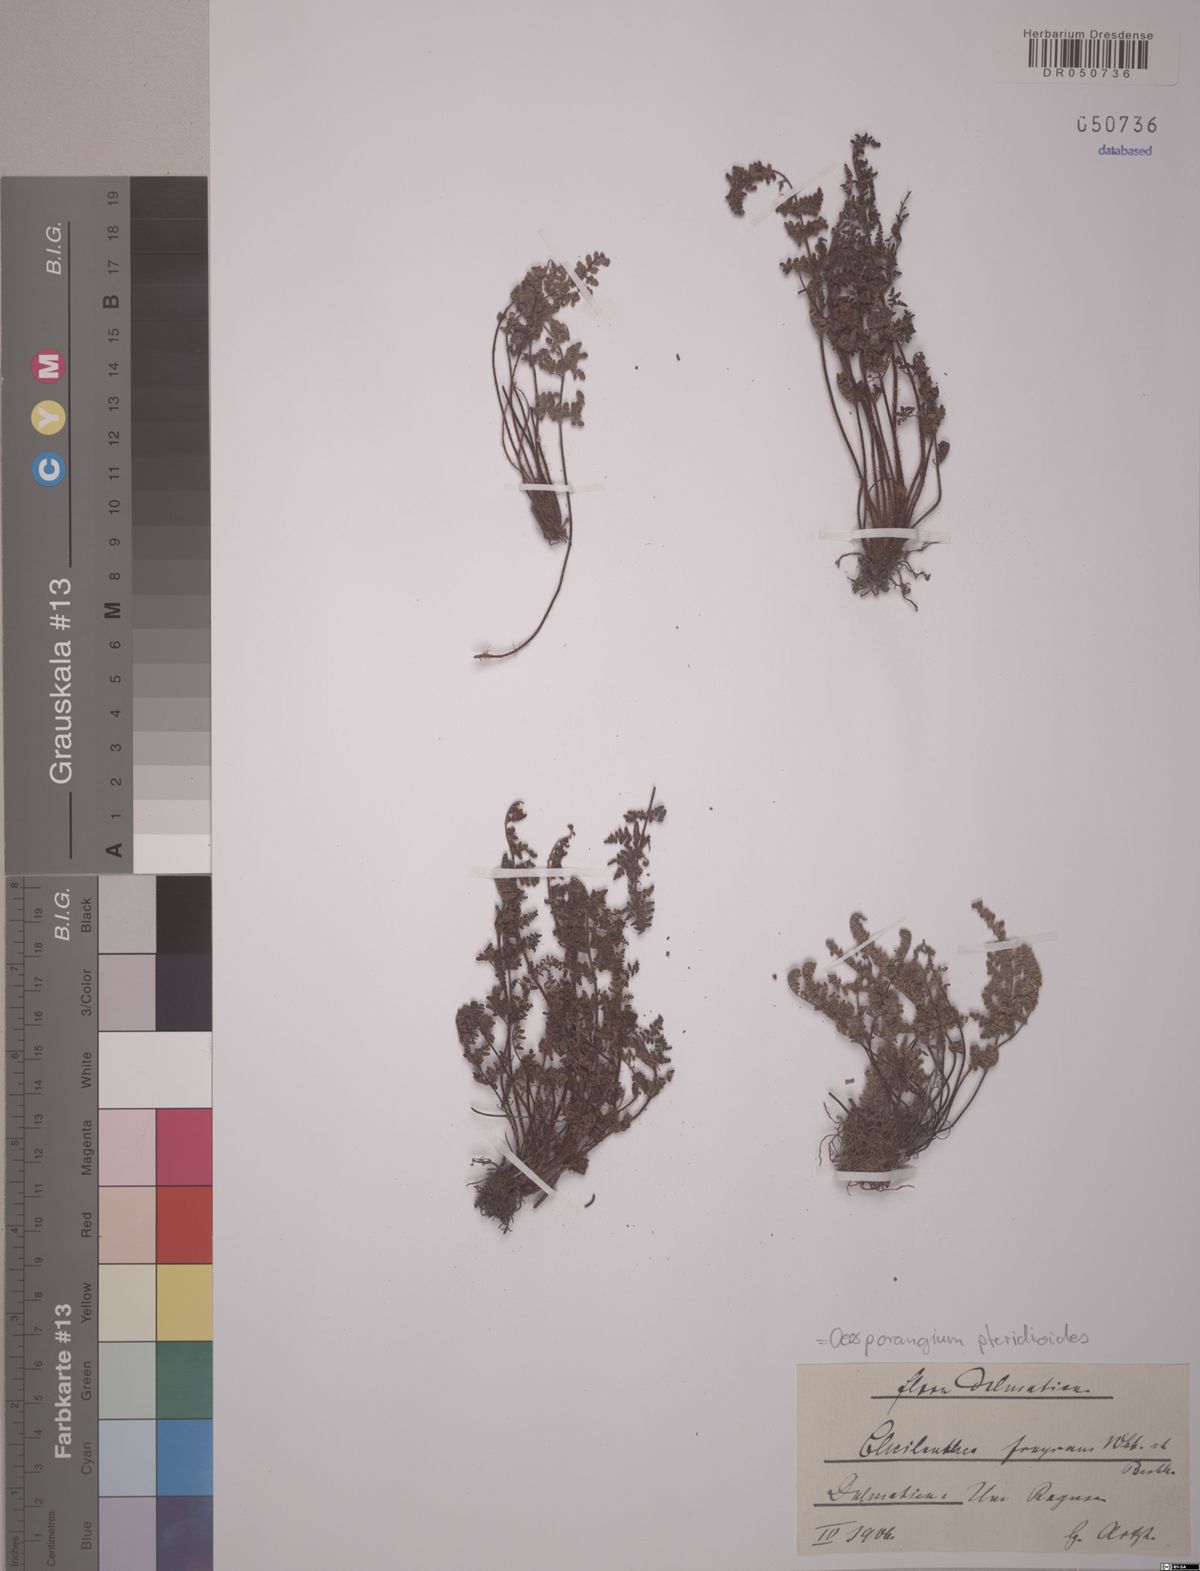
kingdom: Plantae
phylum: Tracheophyta
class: Polypodiopsida
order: Polypodiales
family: Pteridaceae
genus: Oeosporangium
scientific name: Oeosporangium pteridioides
